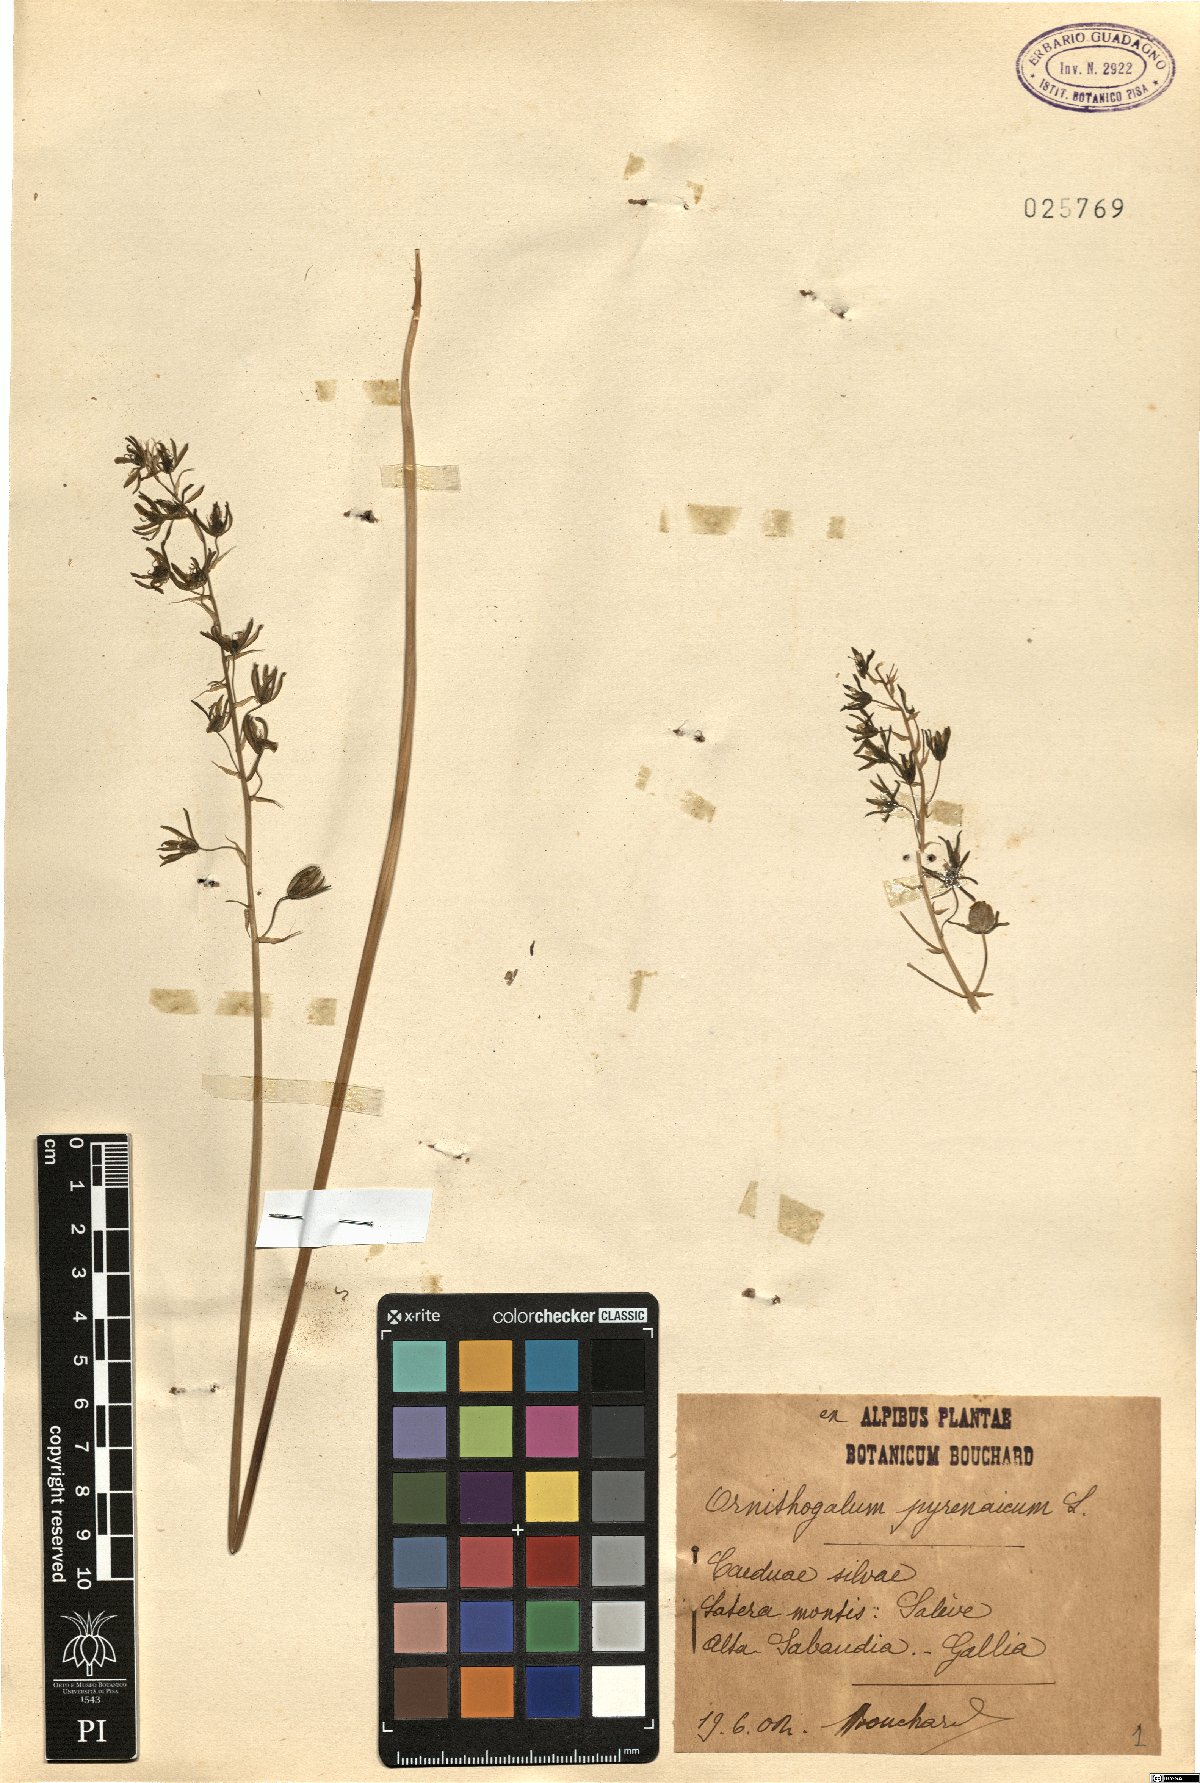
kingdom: Plantae
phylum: Tracheophyta
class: Liliopsida
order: Asparagales
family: Asparagaceae
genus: Ornithogalum
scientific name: Ornithogalum pyrenaicum
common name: Spiked star-of-bethlehem
